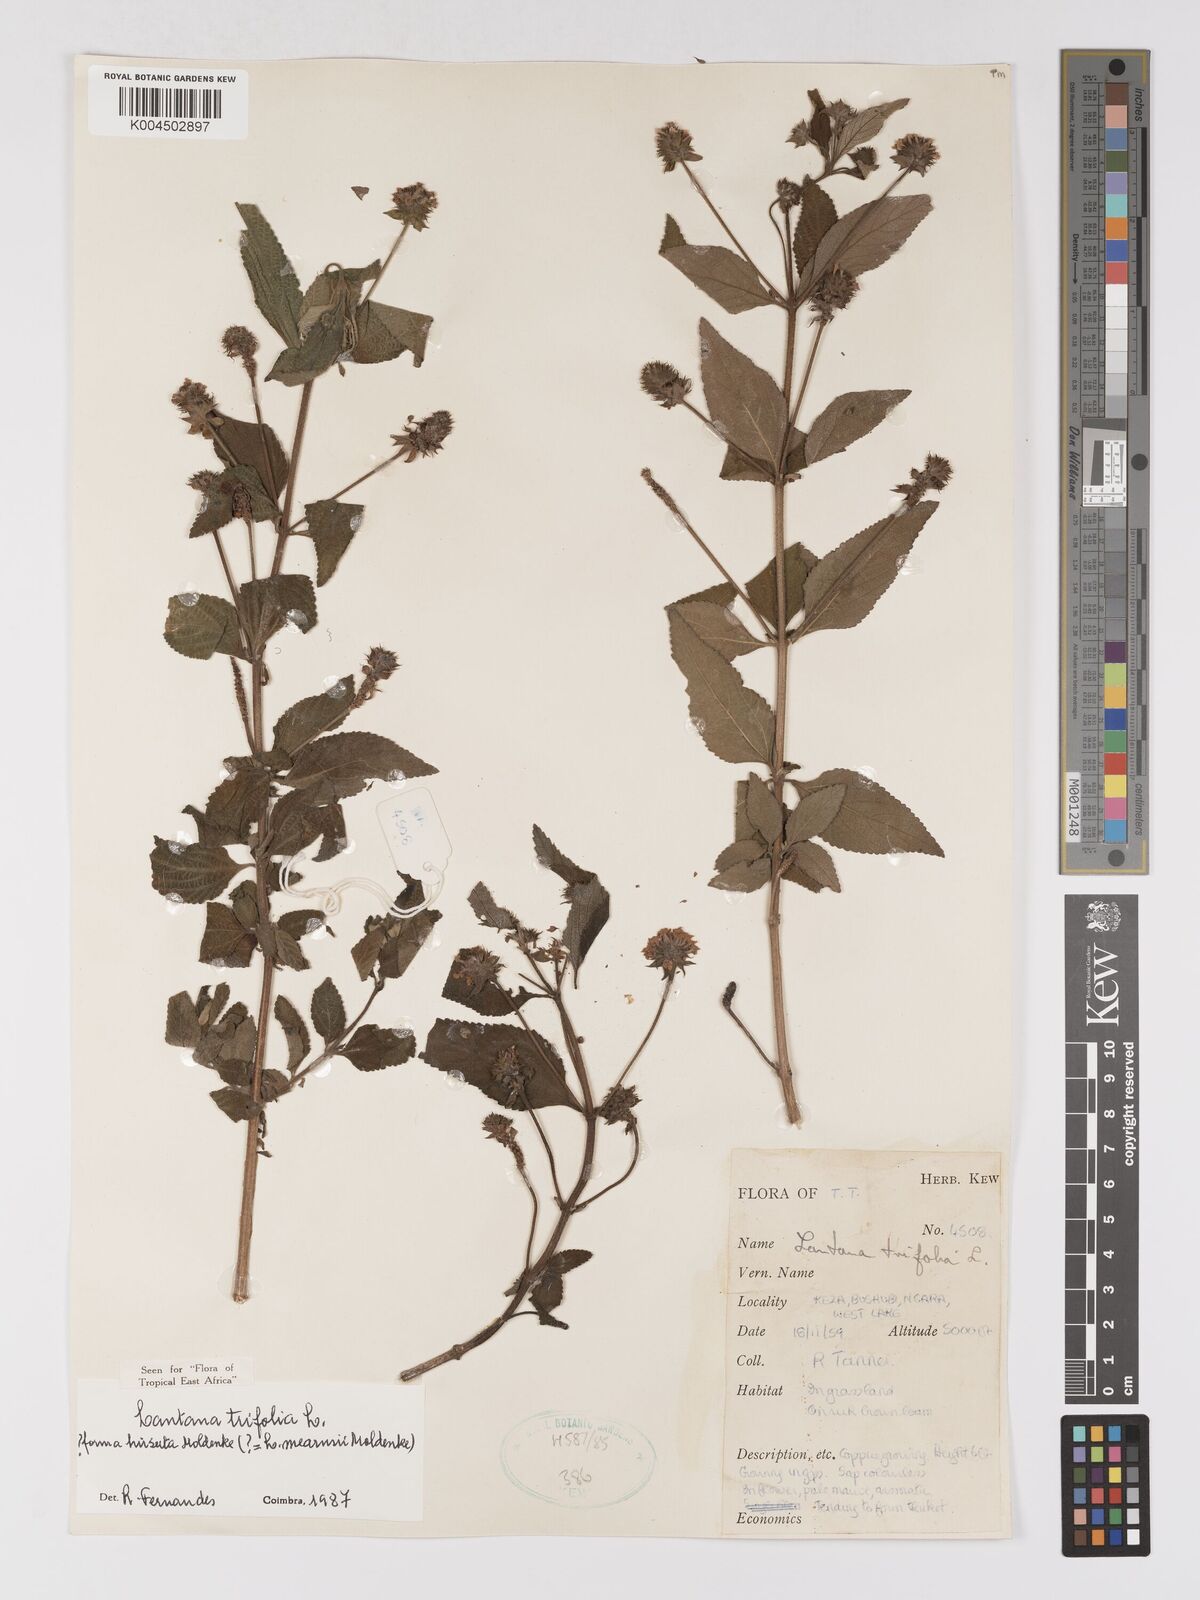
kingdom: Plantae
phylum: Tracheophyta
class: Magnoliopsida
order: Lamiales
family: Verbenaceae
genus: Lantana
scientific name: Lantana trifolia
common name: Sweet-sage
